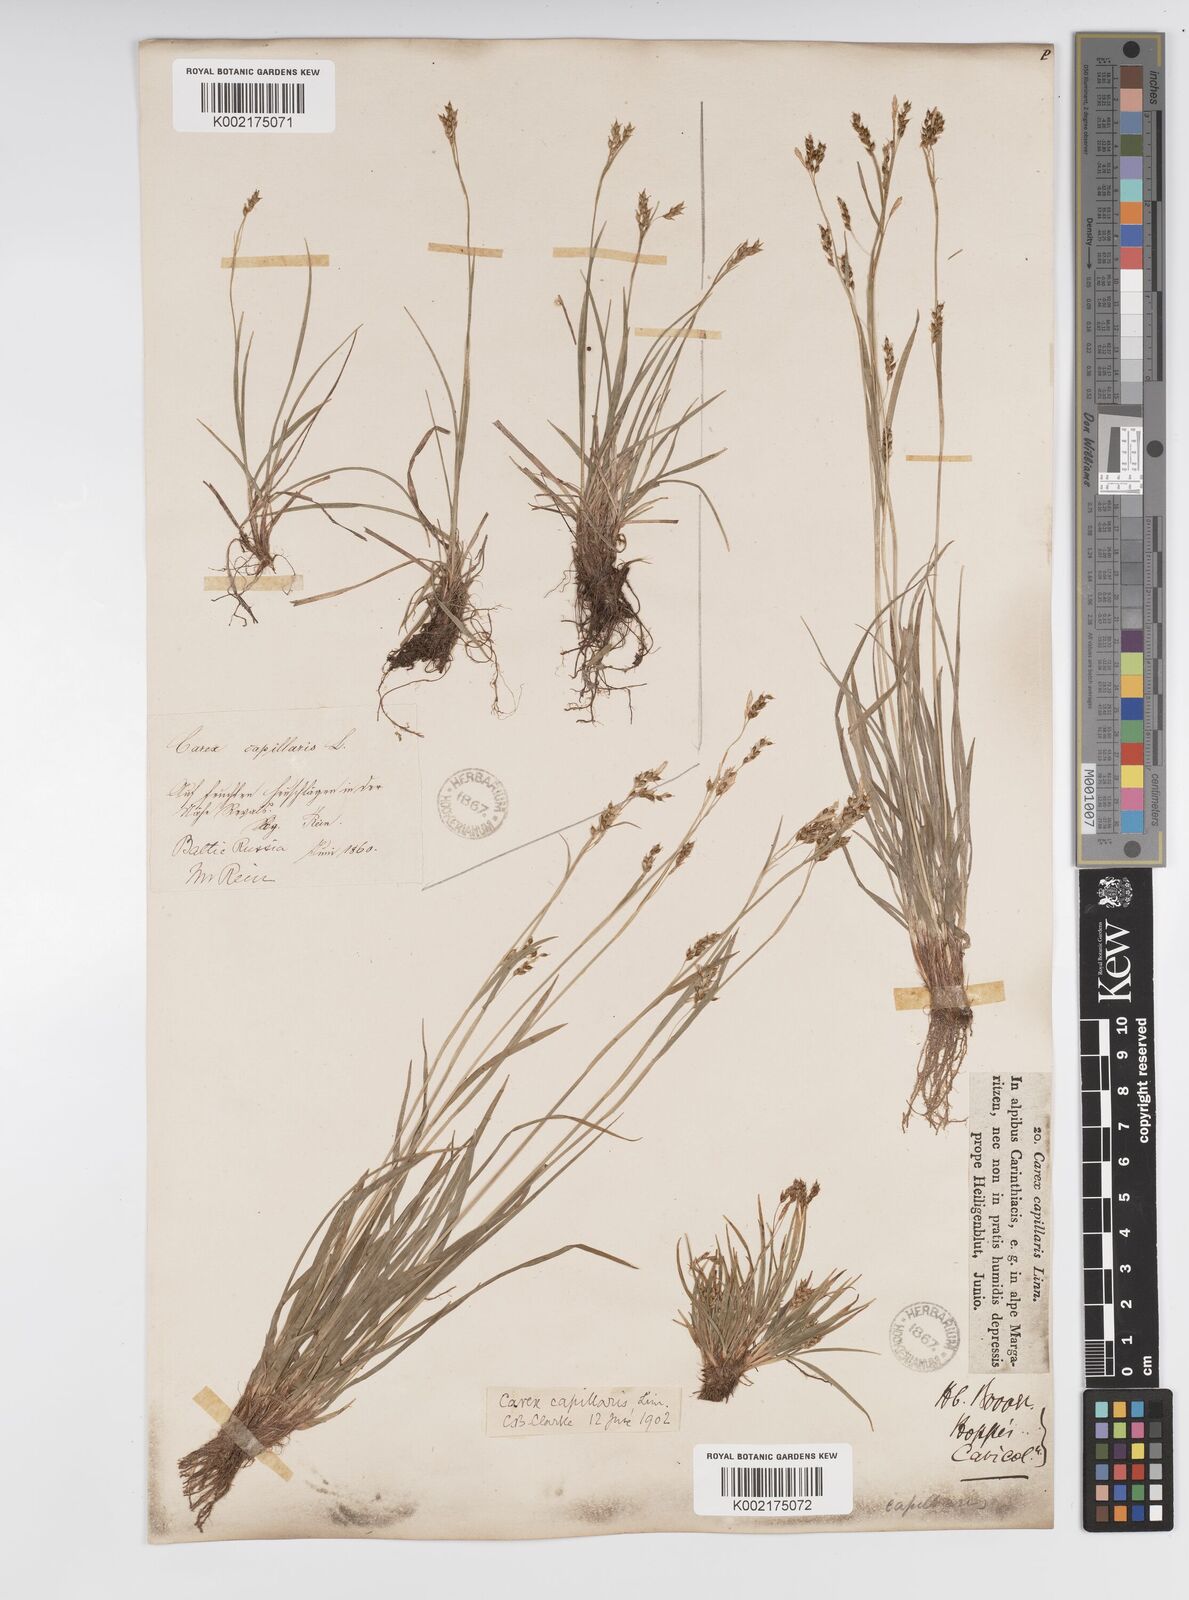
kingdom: Plantae
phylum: Tracheophyta
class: Liliopsida
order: Poales
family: Cyperaceae
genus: Carex
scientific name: Carex capillaris
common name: Hair sedge
